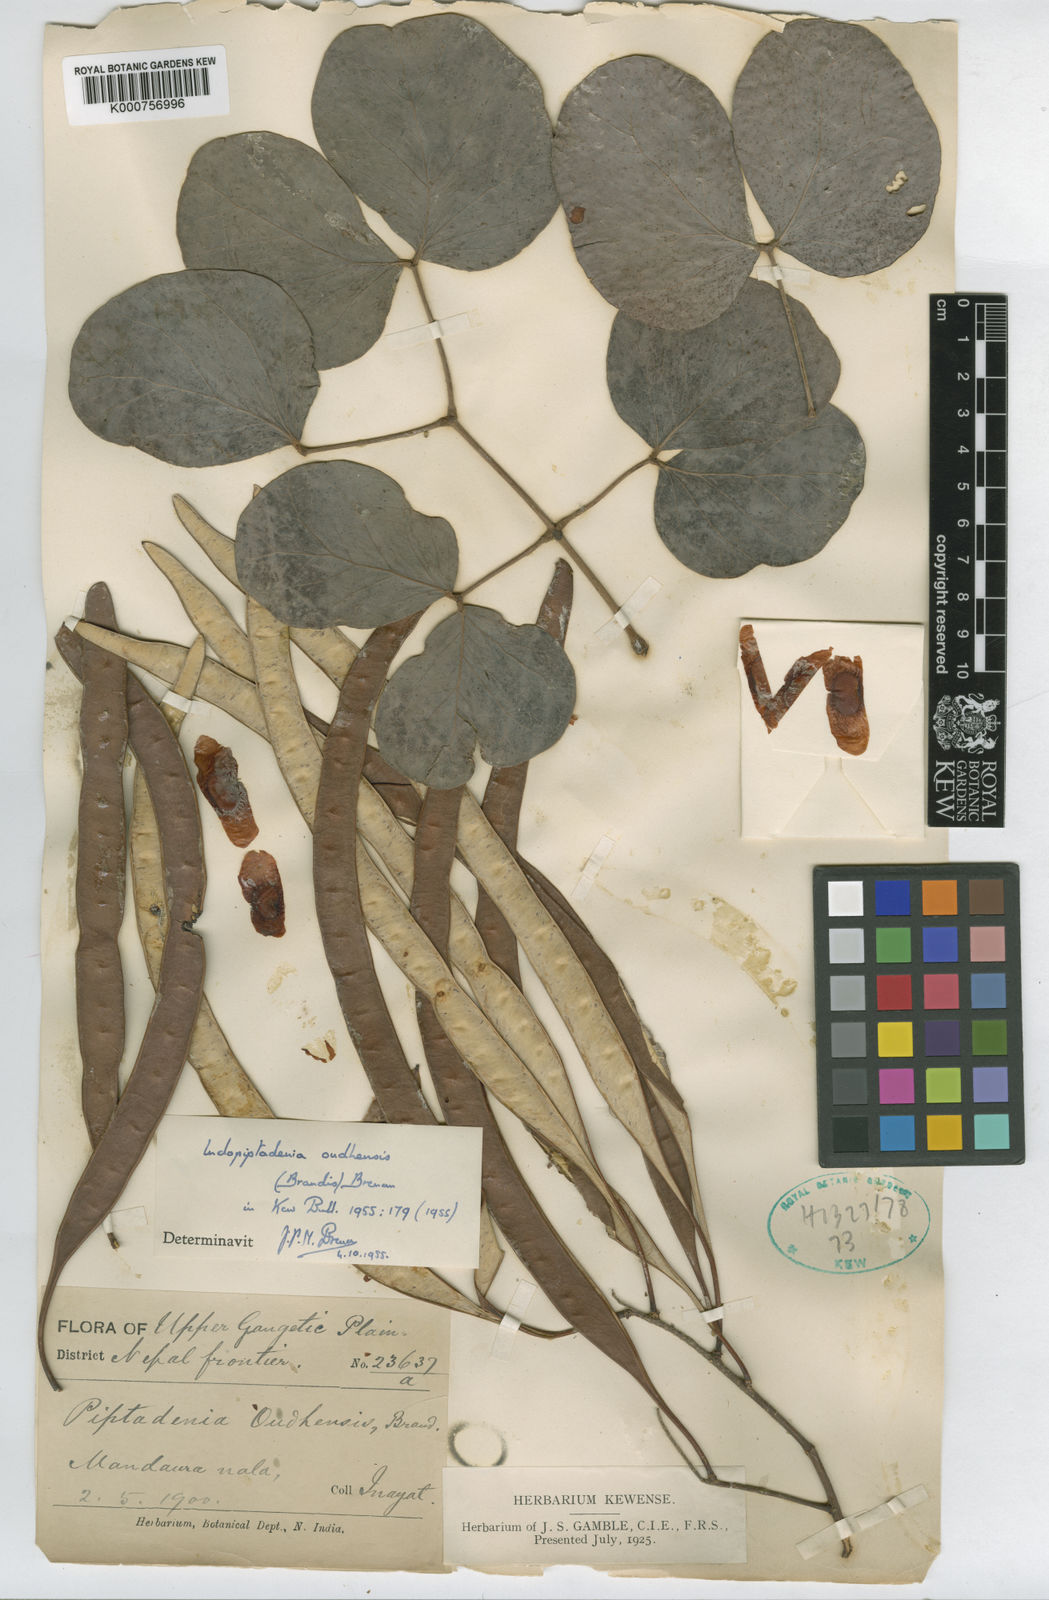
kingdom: Plantae
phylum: Tracheophyta
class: Magnoliopsida
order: Fabales
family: Fabaceae
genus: Indopiptadenia
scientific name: Indopiptadenia oudhensis
